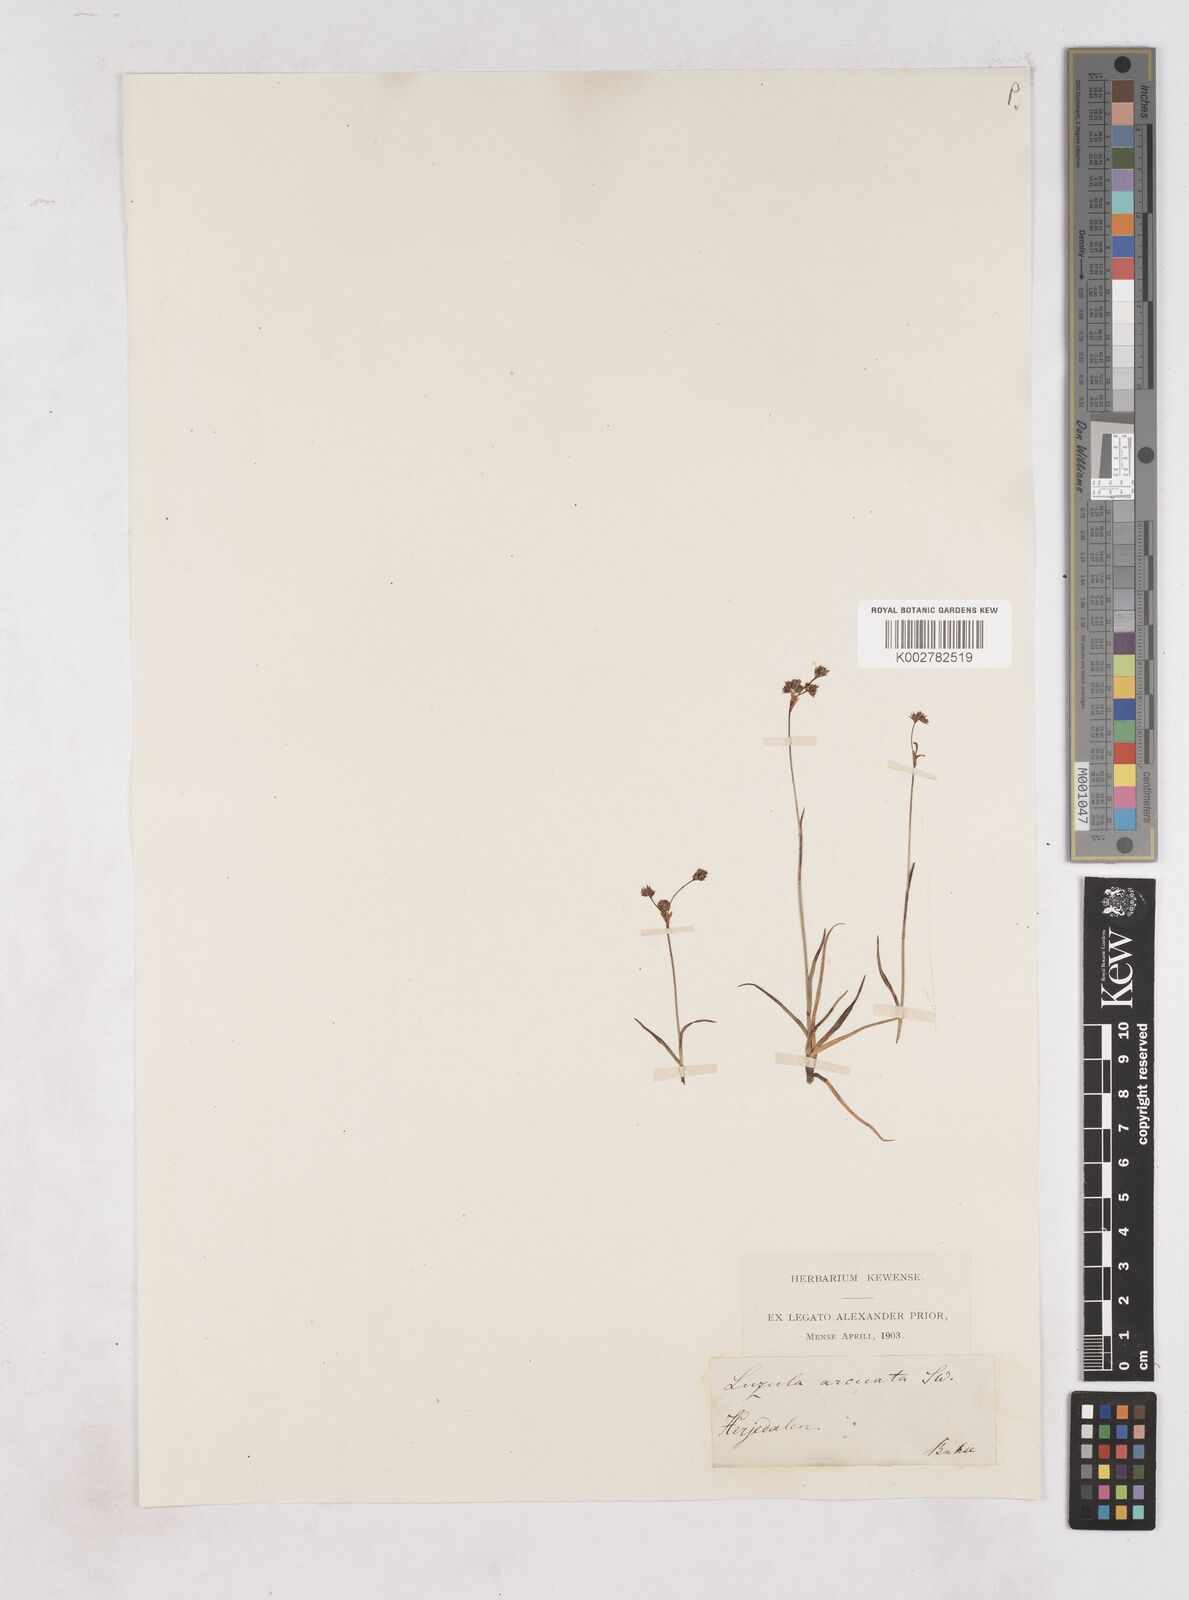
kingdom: Plantae
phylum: Tracheophyta
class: Liliopsida
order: Poales
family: Juncaceae
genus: Luzula
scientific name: Luzula arcuata
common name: Curved wood-rush
